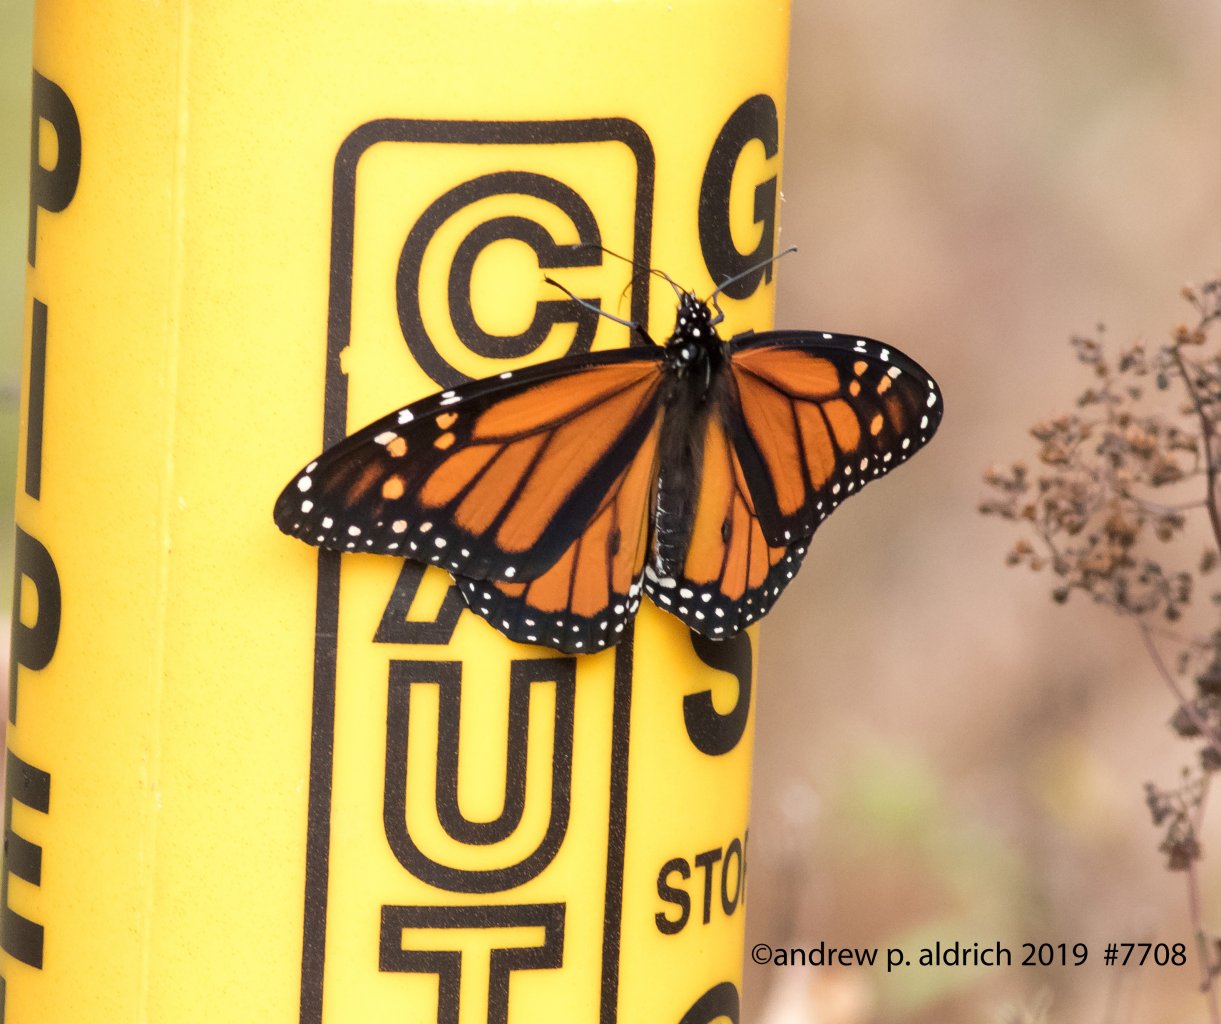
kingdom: Animalia
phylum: Arthropoda
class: Insecta
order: Lepidoptera
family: Nymphalidae
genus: Danaus
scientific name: Danaus plexippus
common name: Monarch
